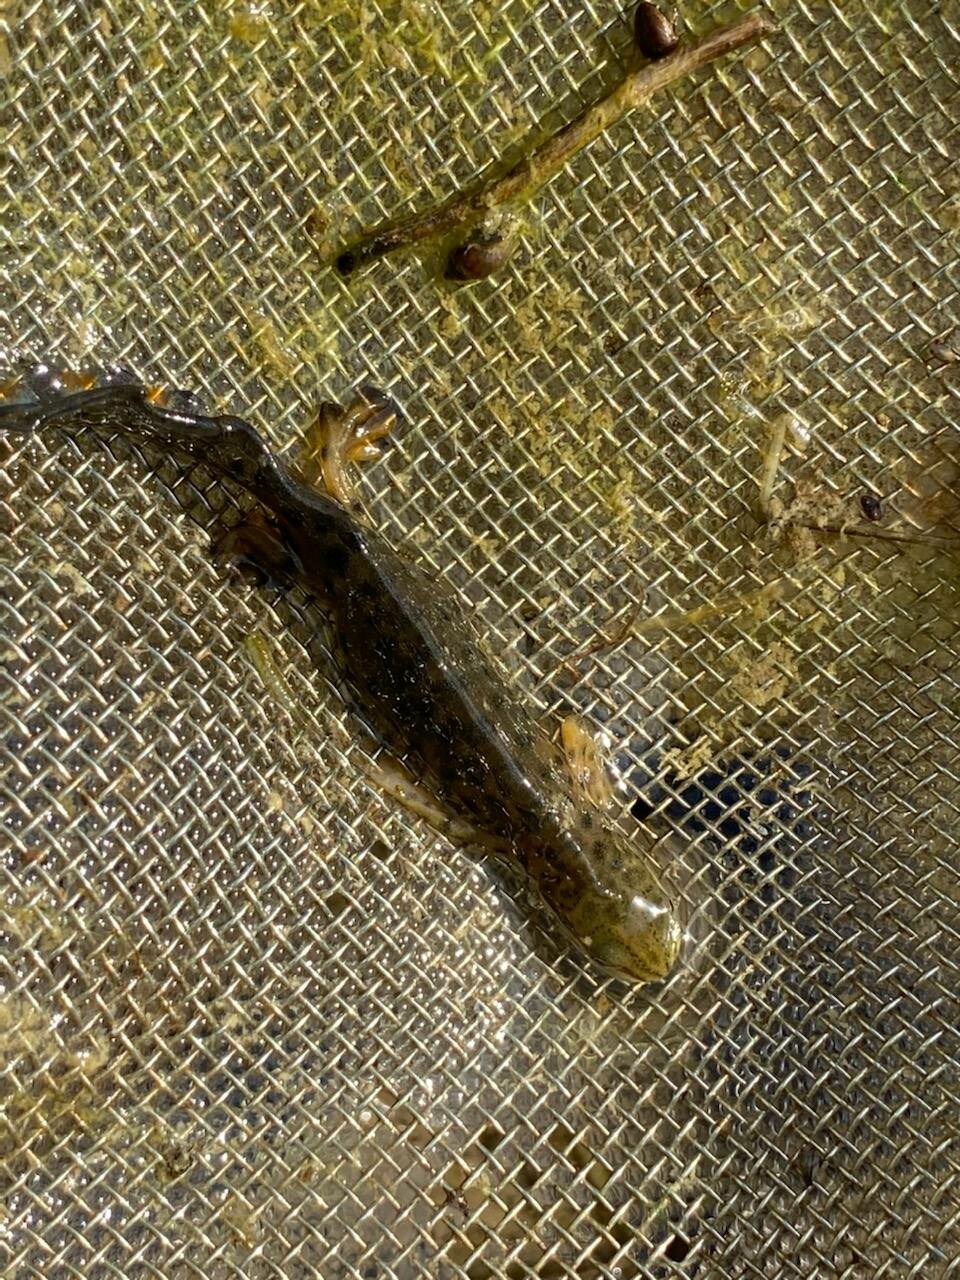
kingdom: Animalia
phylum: Chordata
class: Amphibia
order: Caudata
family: Salamandridae
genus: Lissotriton
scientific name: Lissotriton vulgaris
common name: Lille vandsalamander
